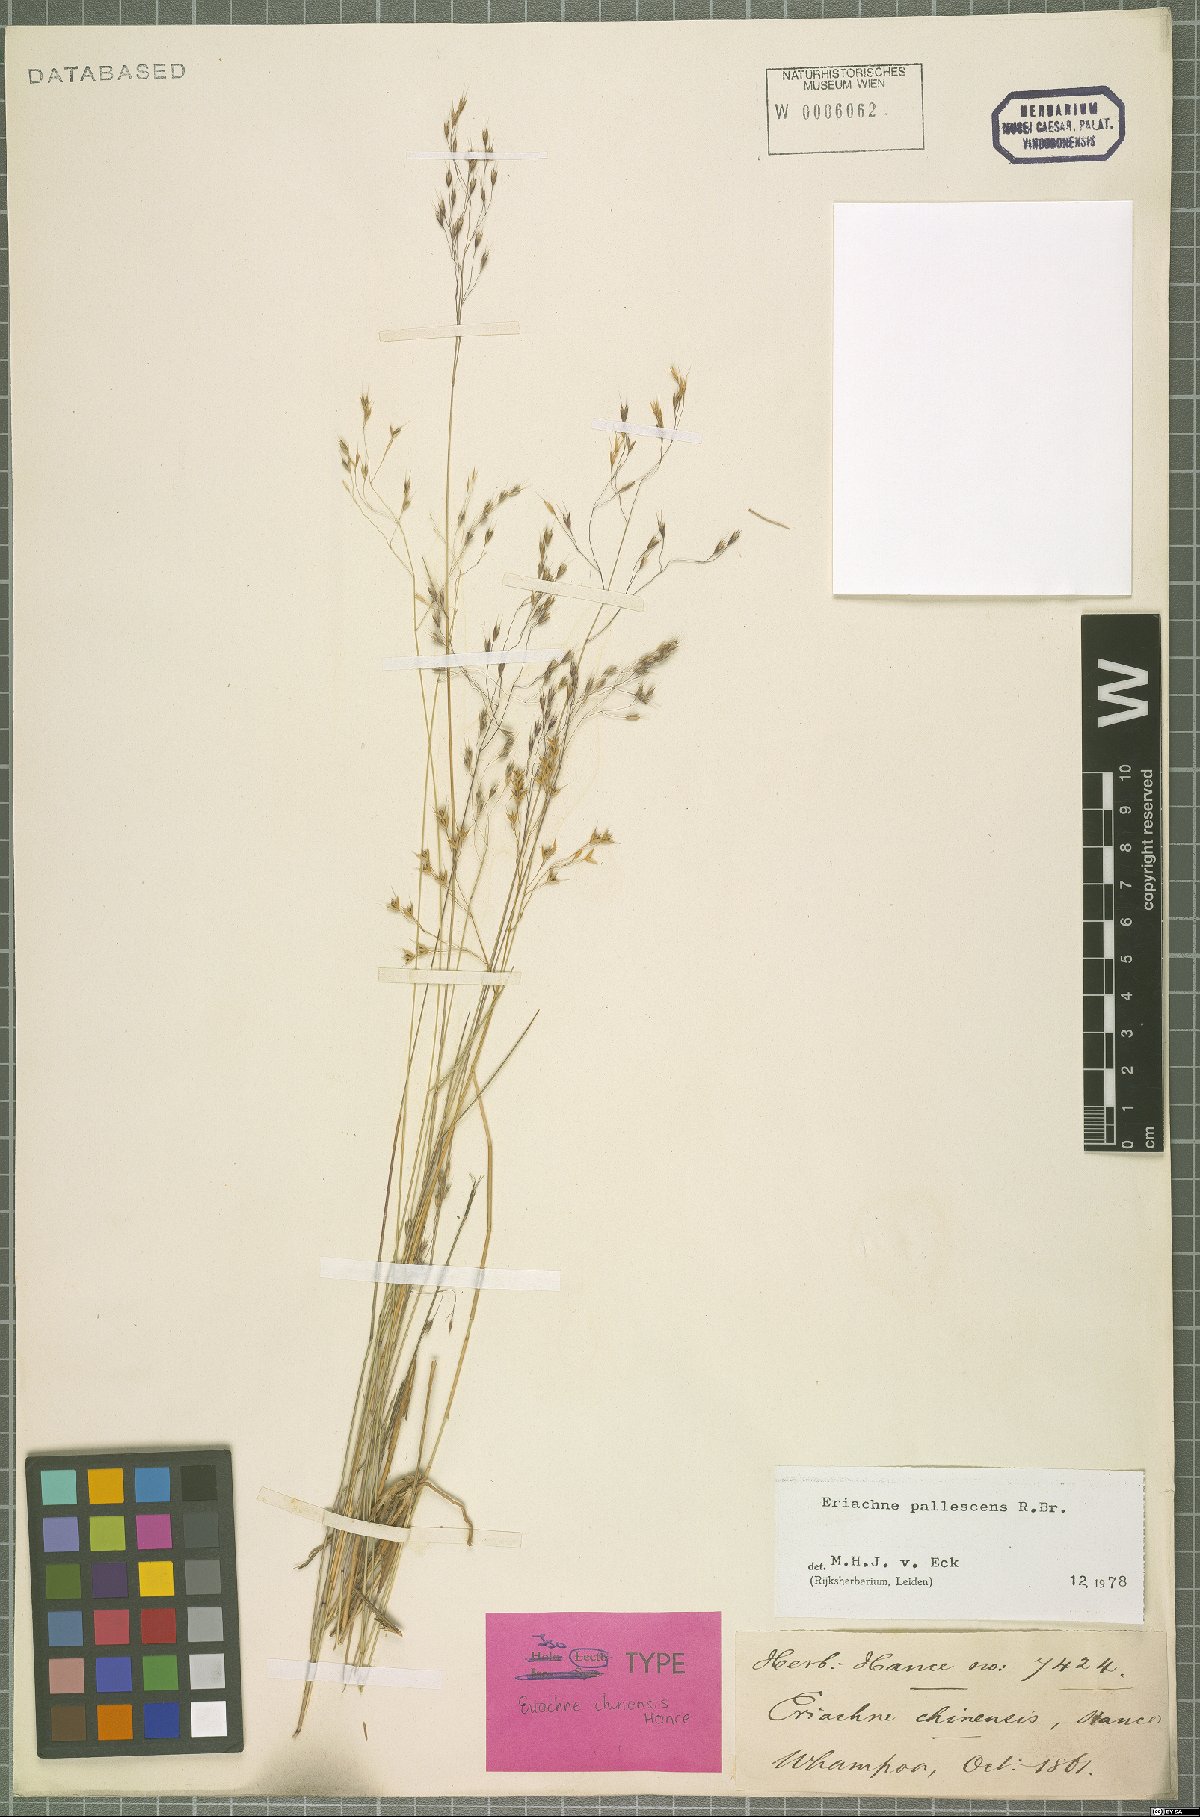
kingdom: Plantae
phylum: Tracheophyta
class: Liliopsida
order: Poales
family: Poaceae
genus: Eriachne
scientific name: Eriachne pallescens
